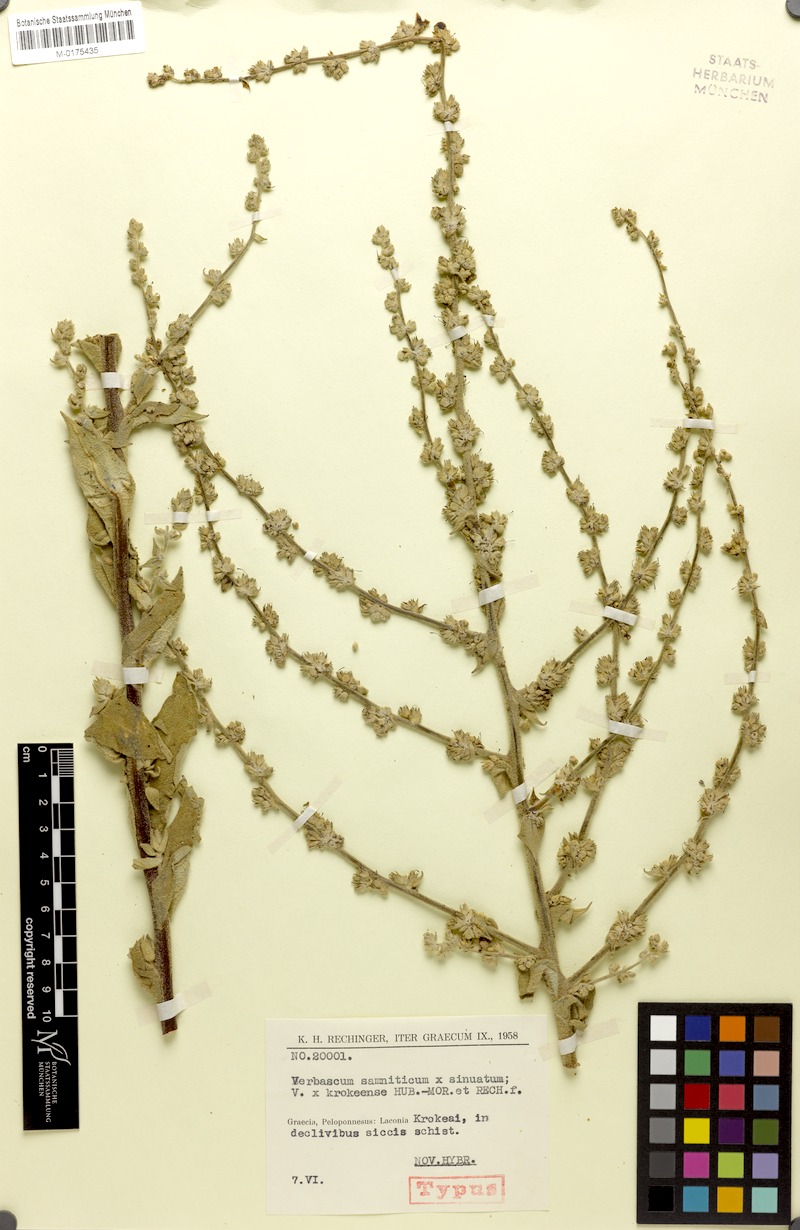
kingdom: Plantae
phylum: Tracheophyta
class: Magnoliopsida
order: Lamiales
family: Scrophulariaceae
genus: Verbascum
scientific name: Verbascum krokeense
